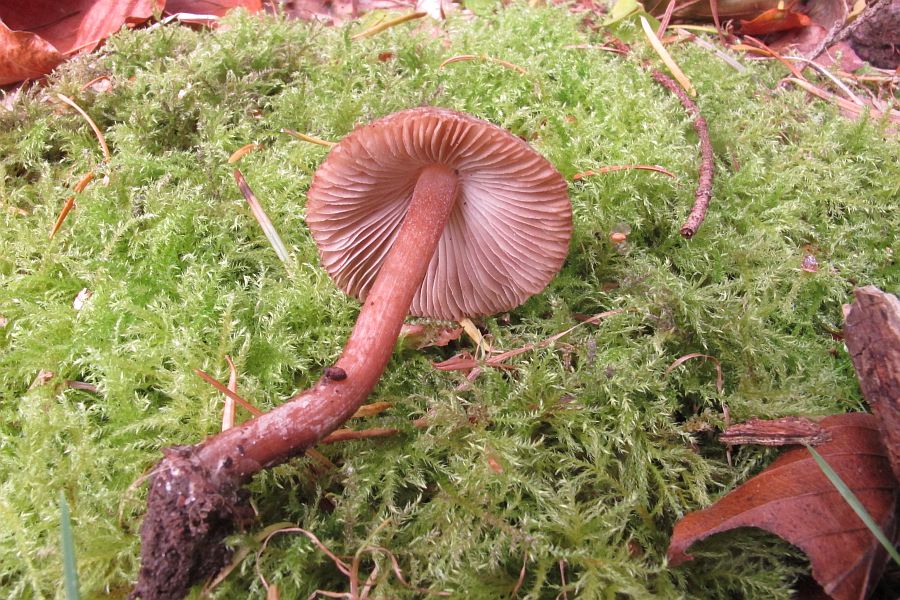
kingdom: Fungi
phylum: Basidiomycota
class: Agaricomycetes
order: Agaricales
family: Inocybaceae
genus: Inocybe
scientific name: Inocybe transitoria
